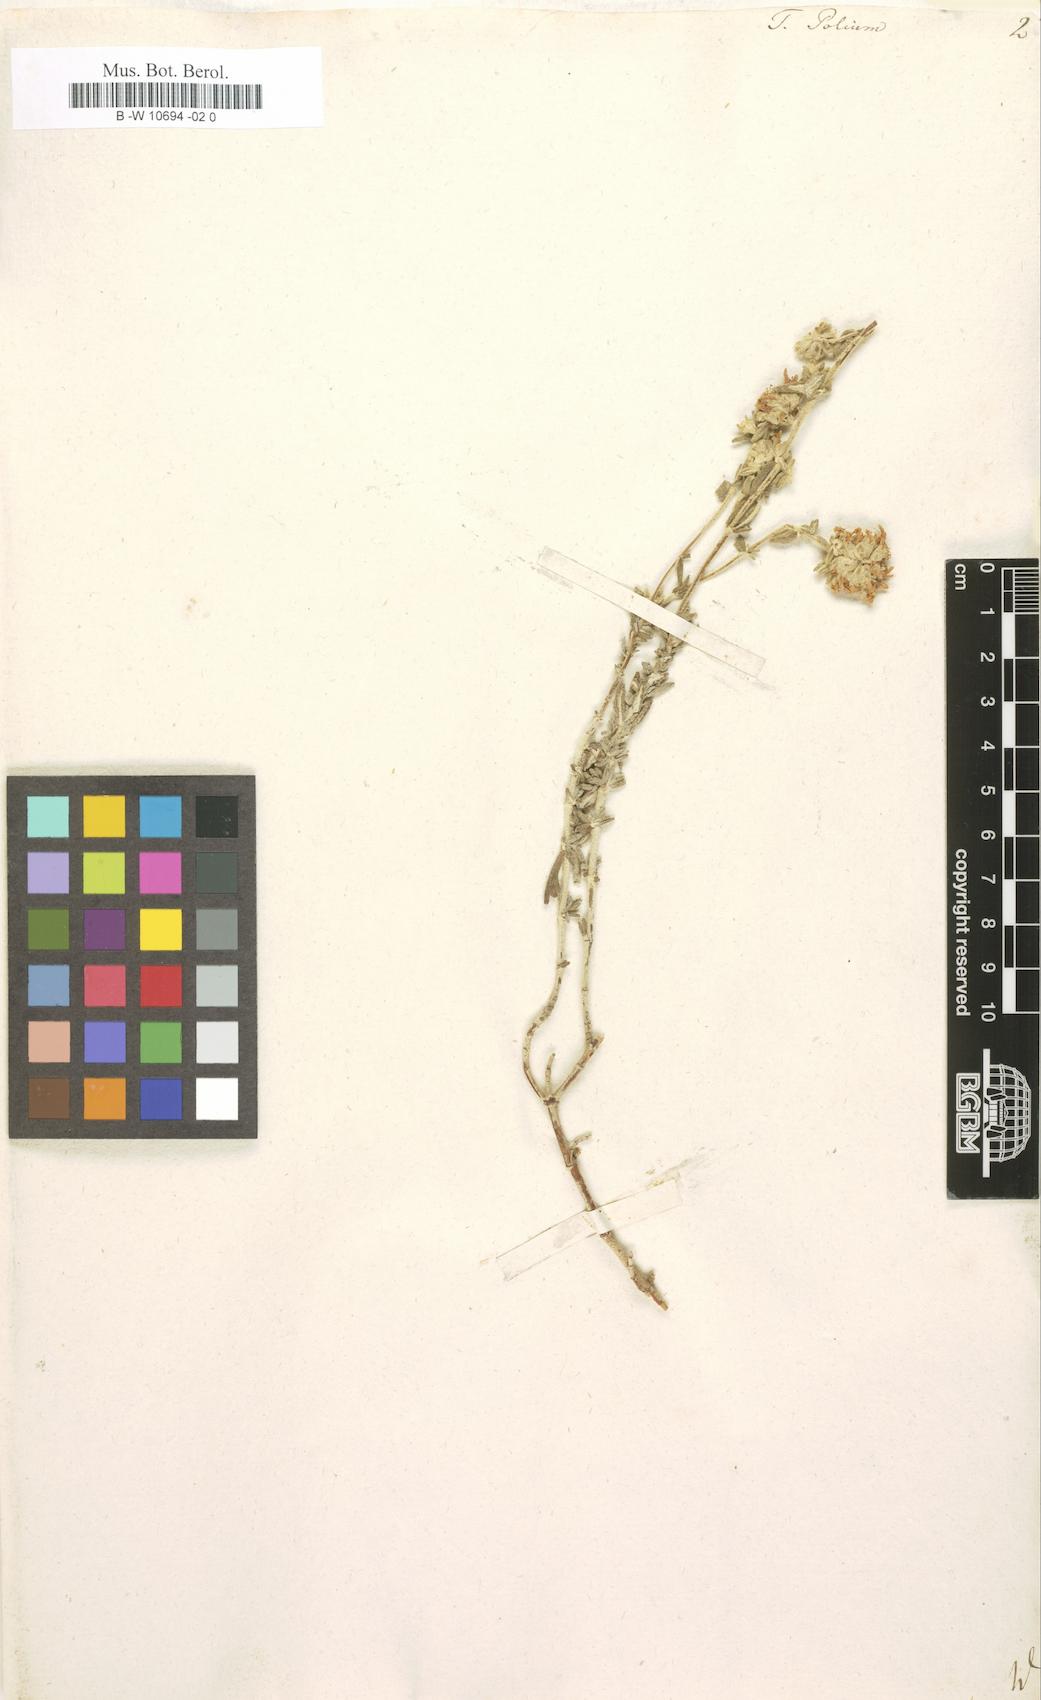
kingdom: Plantae
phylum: Tracheophyta
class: Magnoliopsida
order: Lamiales
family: Lamiaceae
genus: Teucrium
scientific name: Teucrium polium
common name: Poley
